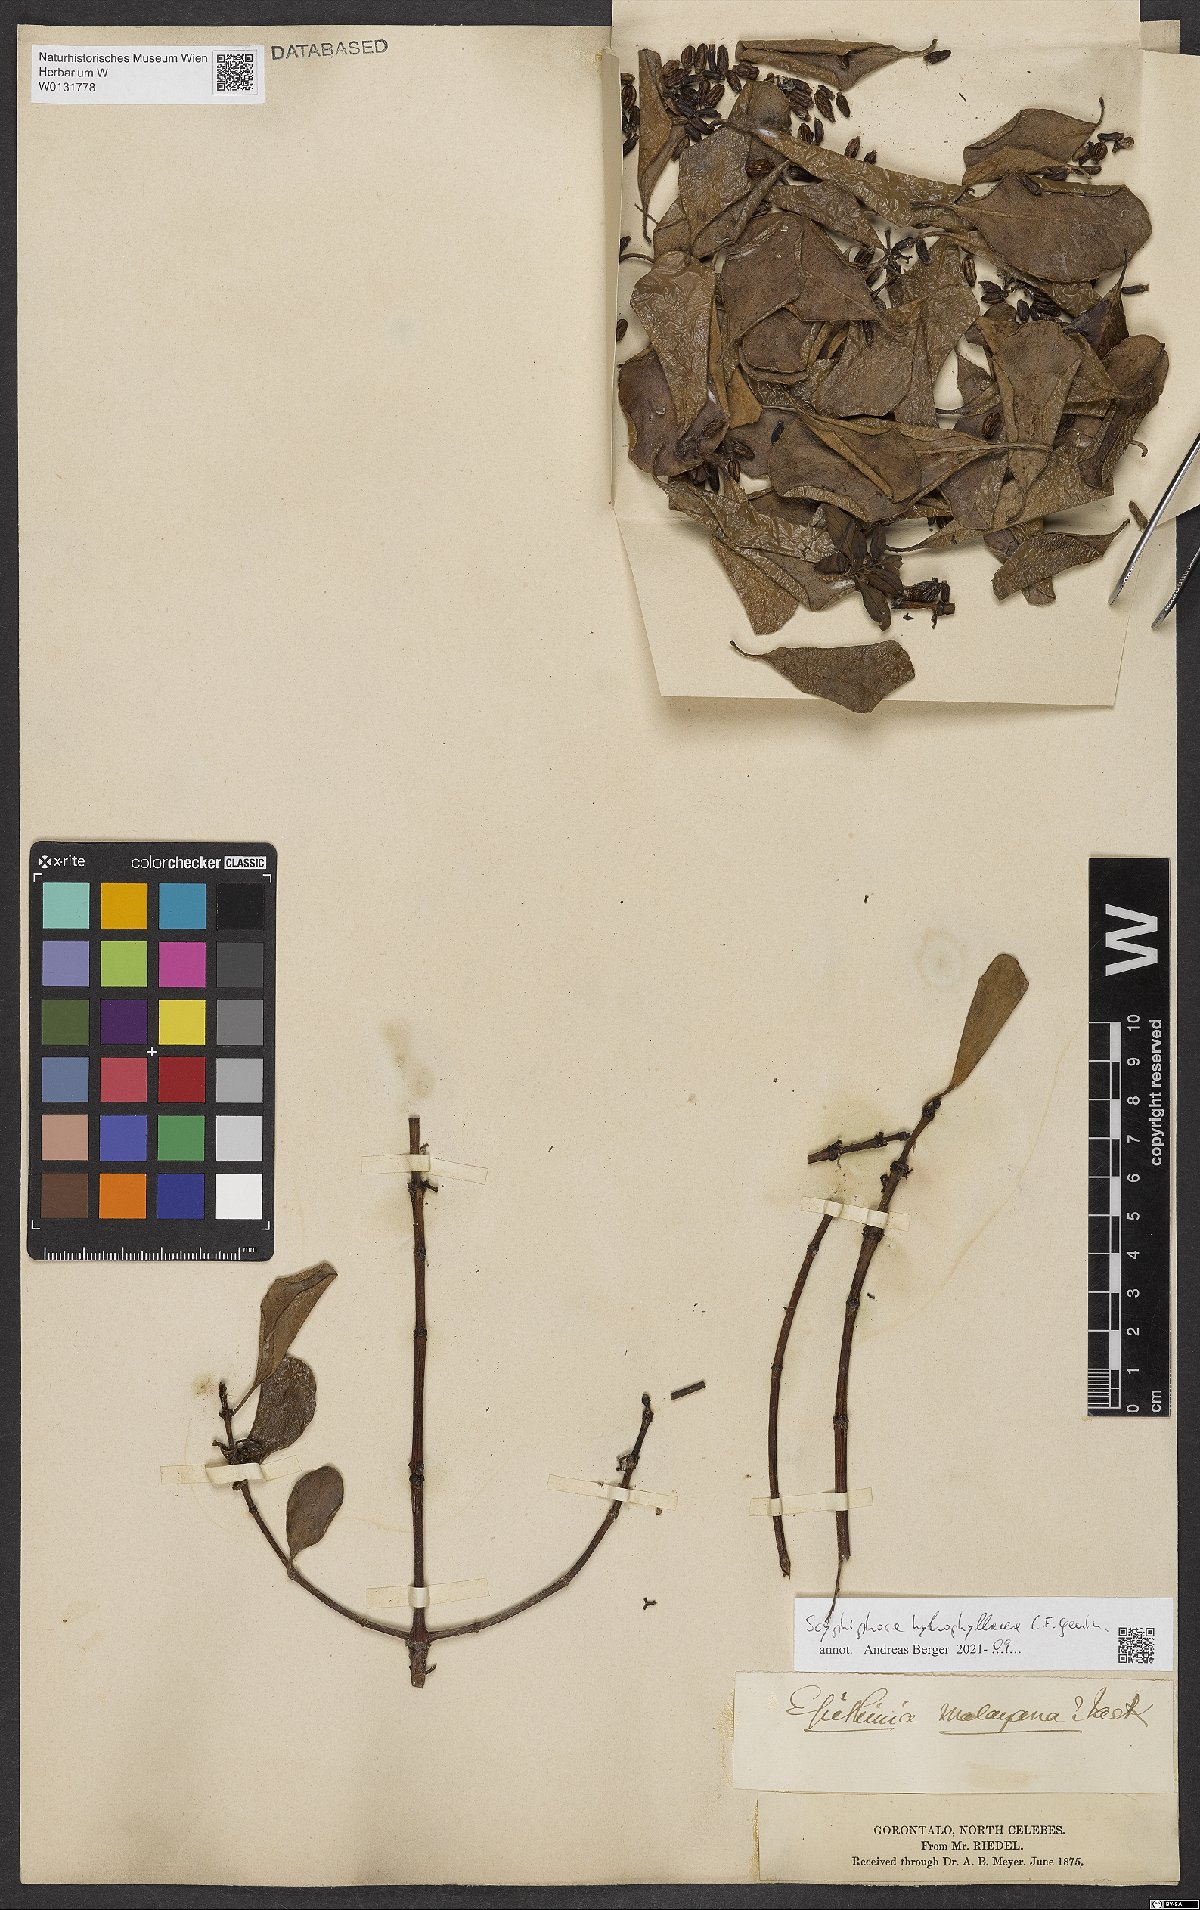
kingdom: Plantae
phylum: Tracheophyta
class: Magnoliopsida
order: Gentianales
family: Rubiaceae
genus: Scyphiphora
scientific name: Scyphiphora hydrophylacea
